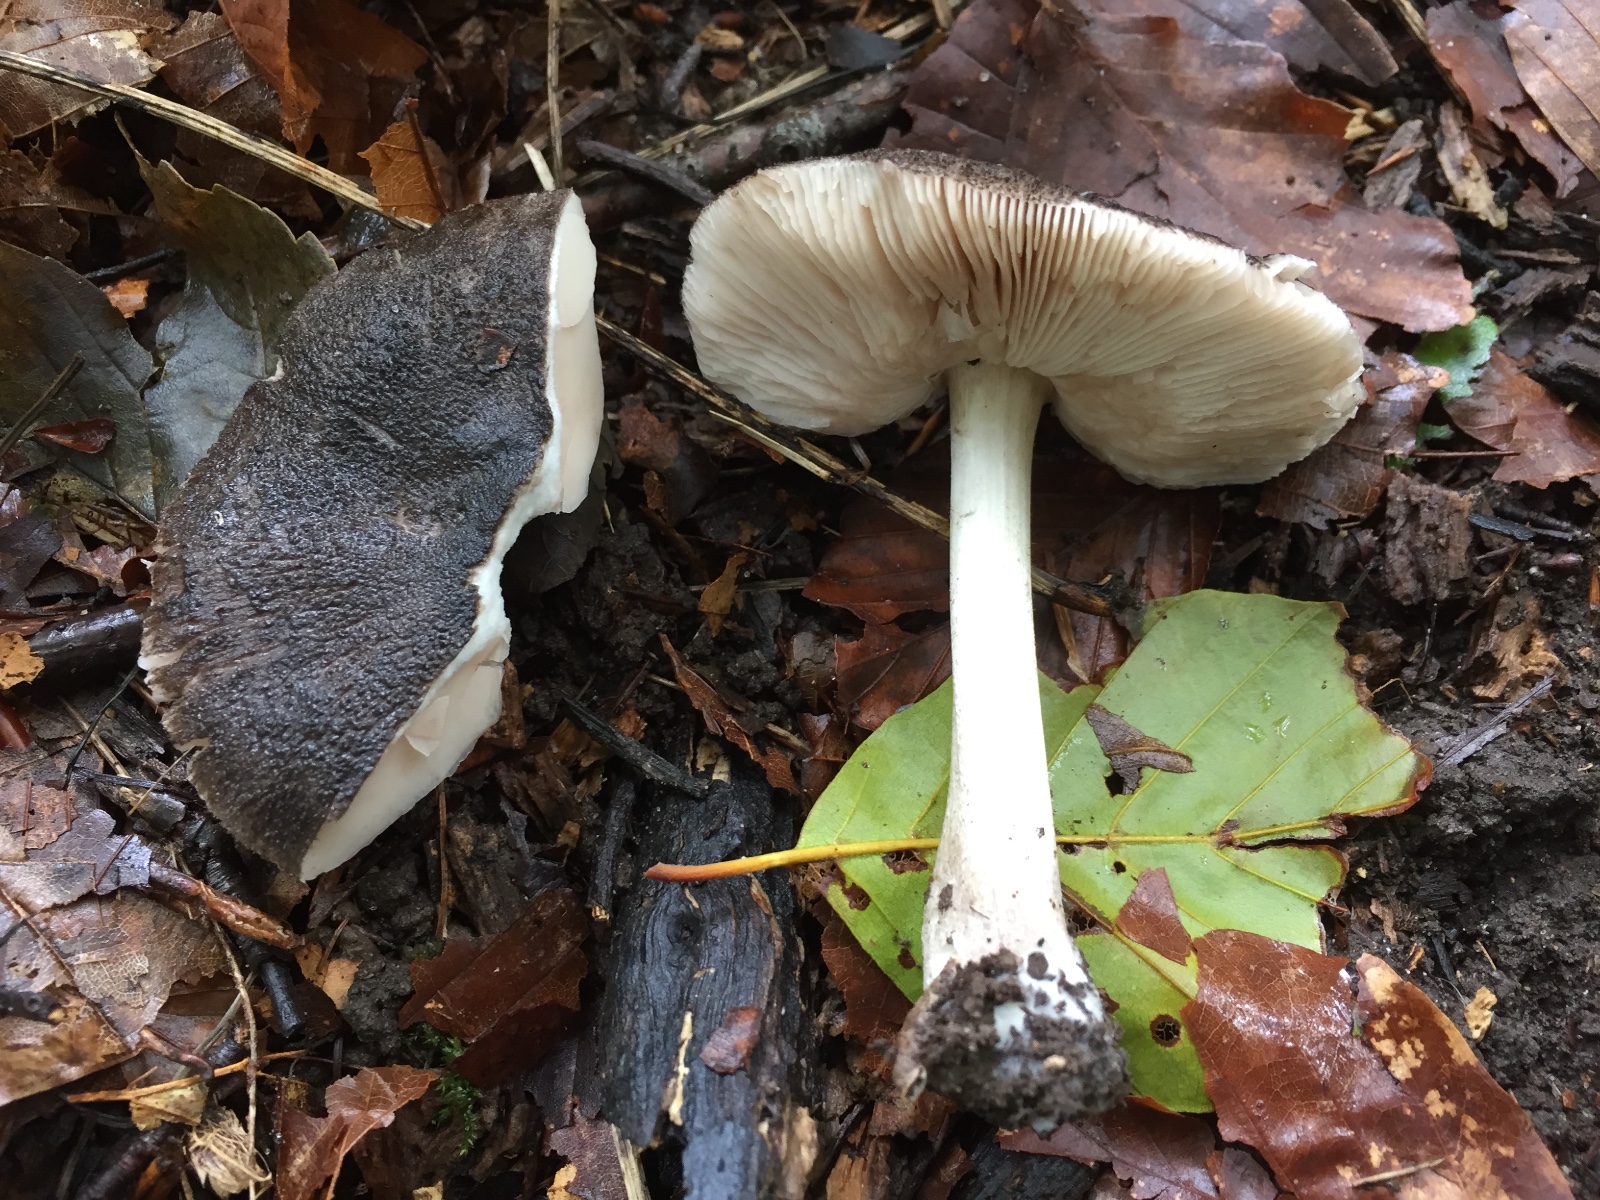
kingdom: Fungi
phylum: Basidiomycota
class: Agaricomycetes
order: Agaricales
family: Pluteaceae
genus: Pluteus
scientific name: Pluteus
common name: gråfibret skærmhat
